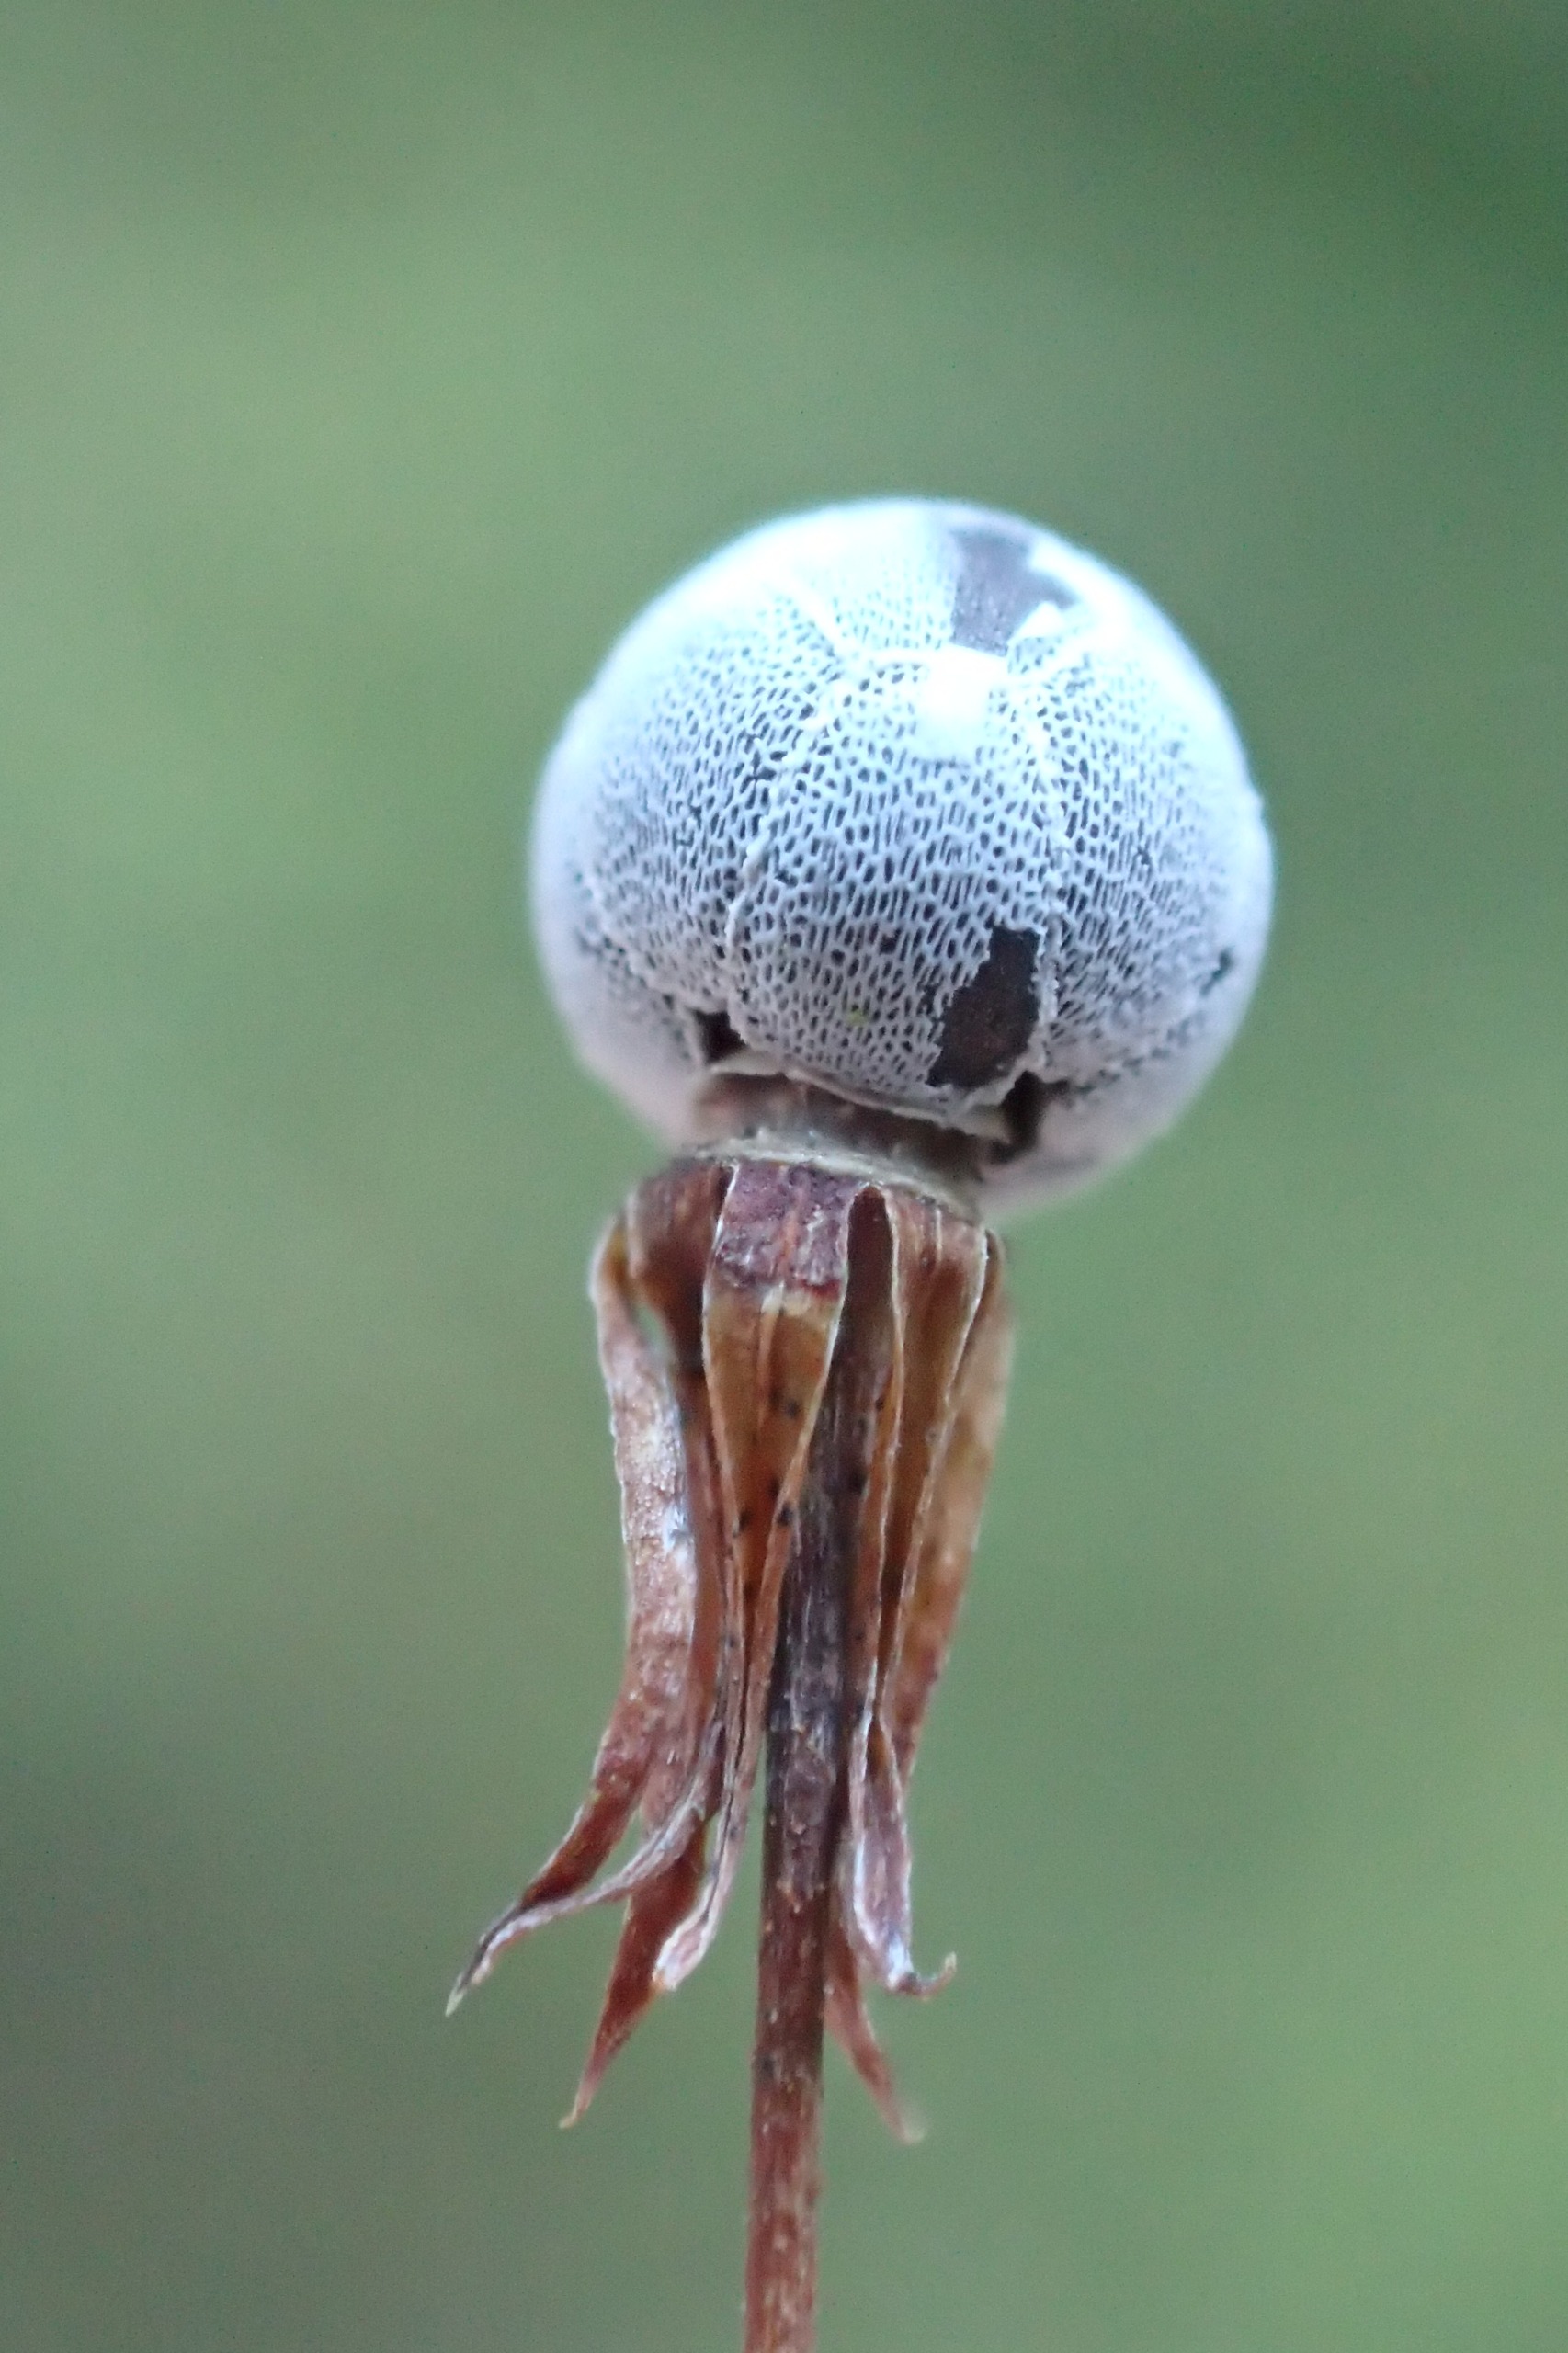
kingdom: Plantae
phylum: Tracheophyta
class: Magnoliopsida
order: Ericales
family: Primulaceae
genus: Lysimachia
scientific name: Lysimachia europaea
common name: Skovstjerne
